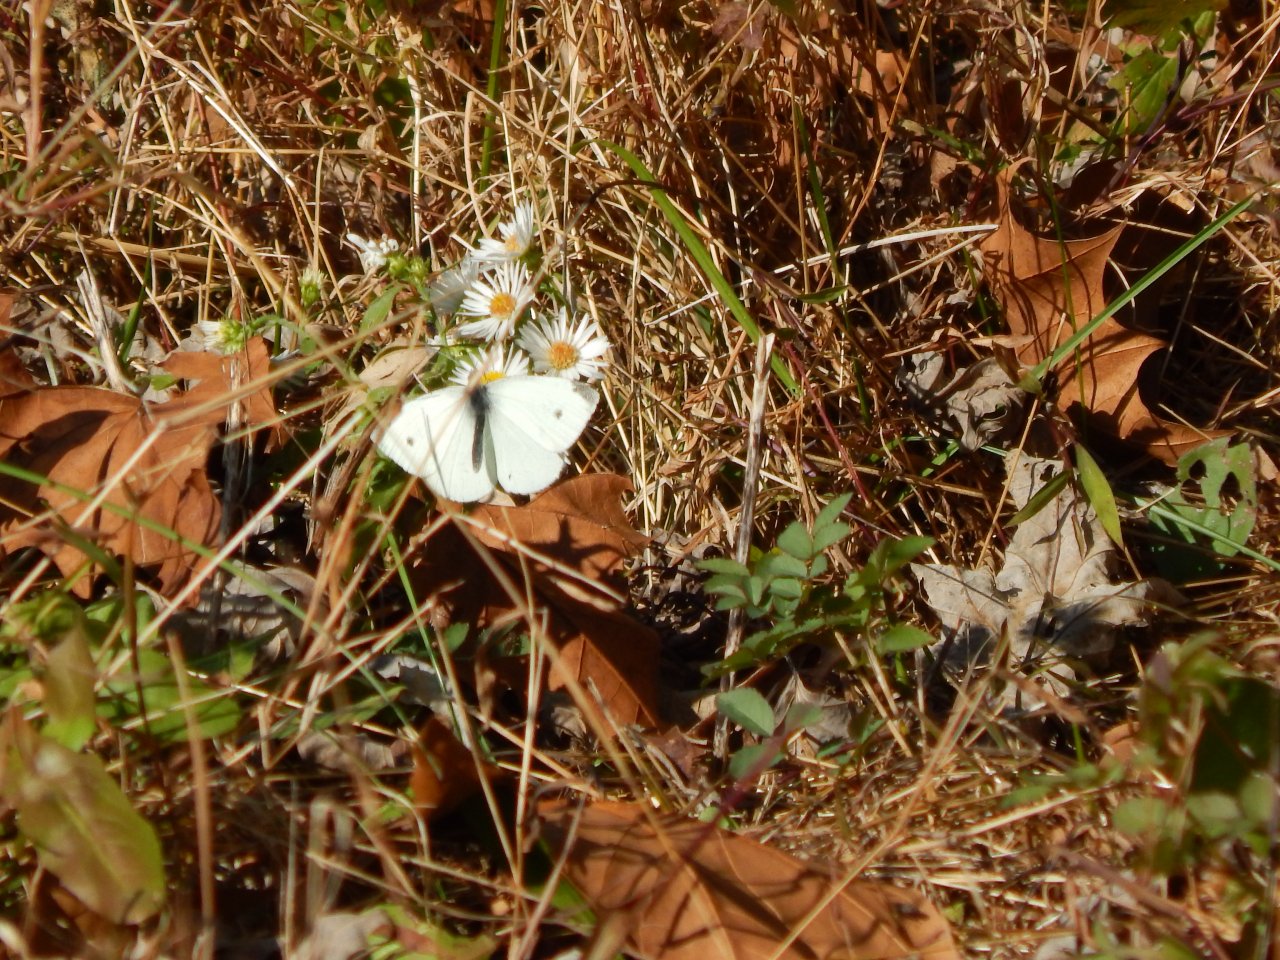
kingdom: Animalia
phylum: Arthropoda
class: Insecta
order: Lepidoptera
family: Pieridae
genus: Pieris
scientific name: Pieris rapae
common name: Cabbage White
